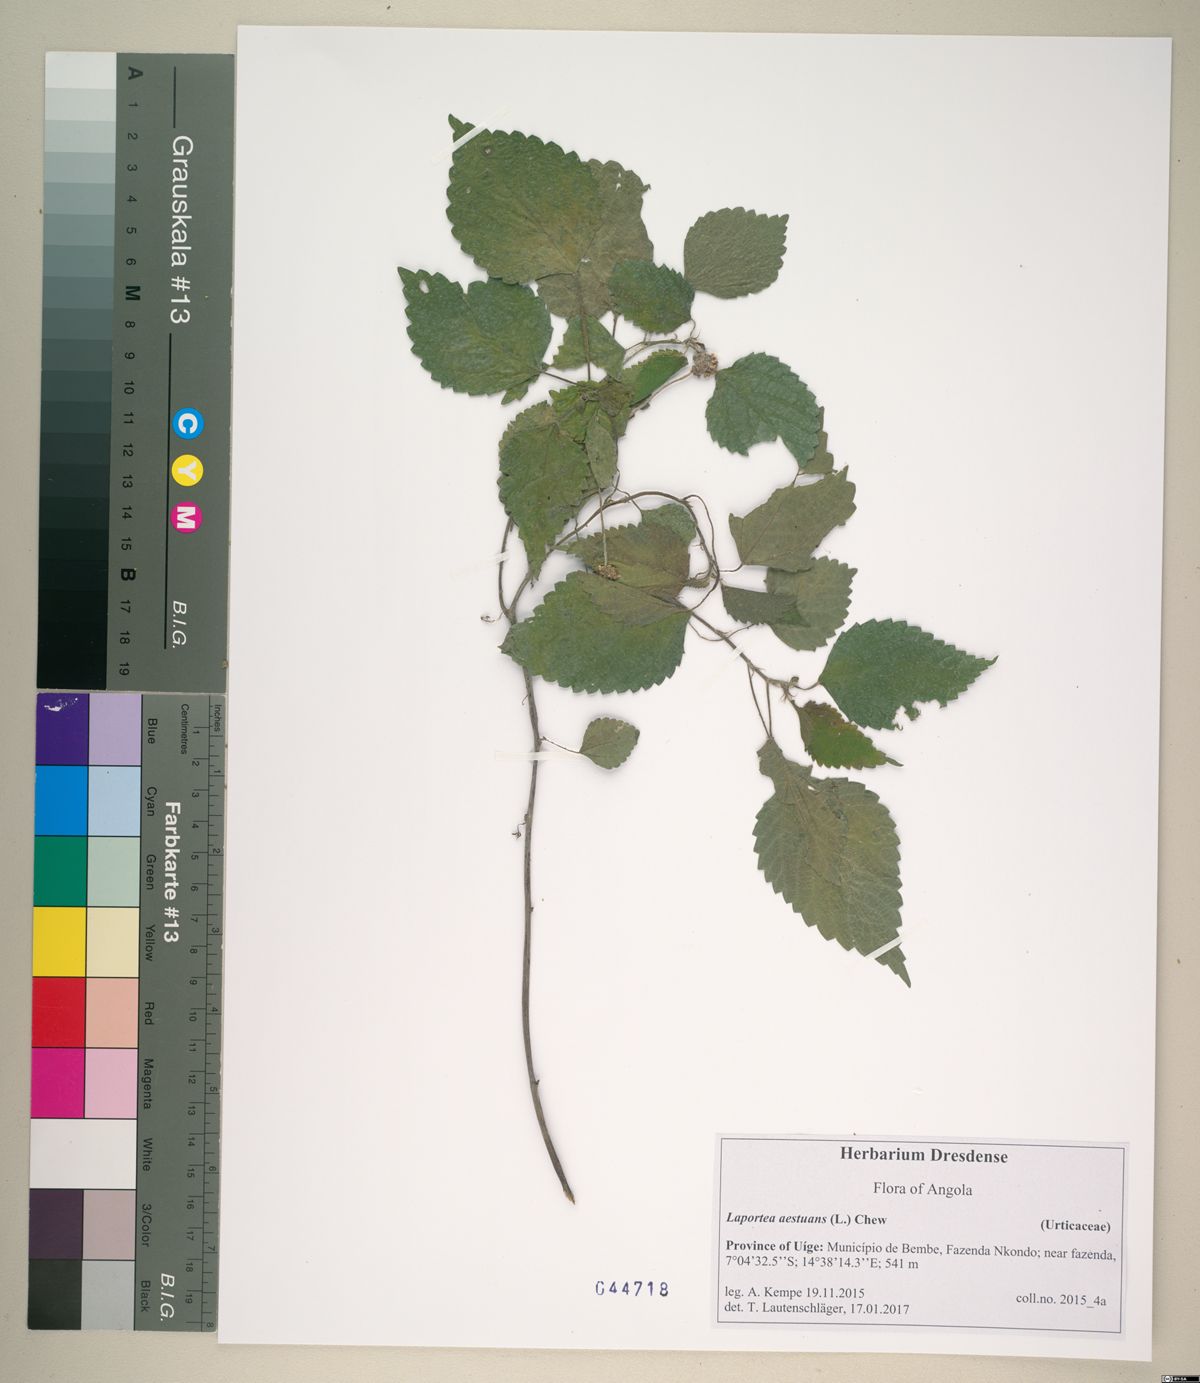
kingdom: Plantae
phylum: Tracheophyta
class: Magnoliopsida
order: Rosales
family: Urticaceae
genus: Laportea
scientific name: Laportea ovalifolia
